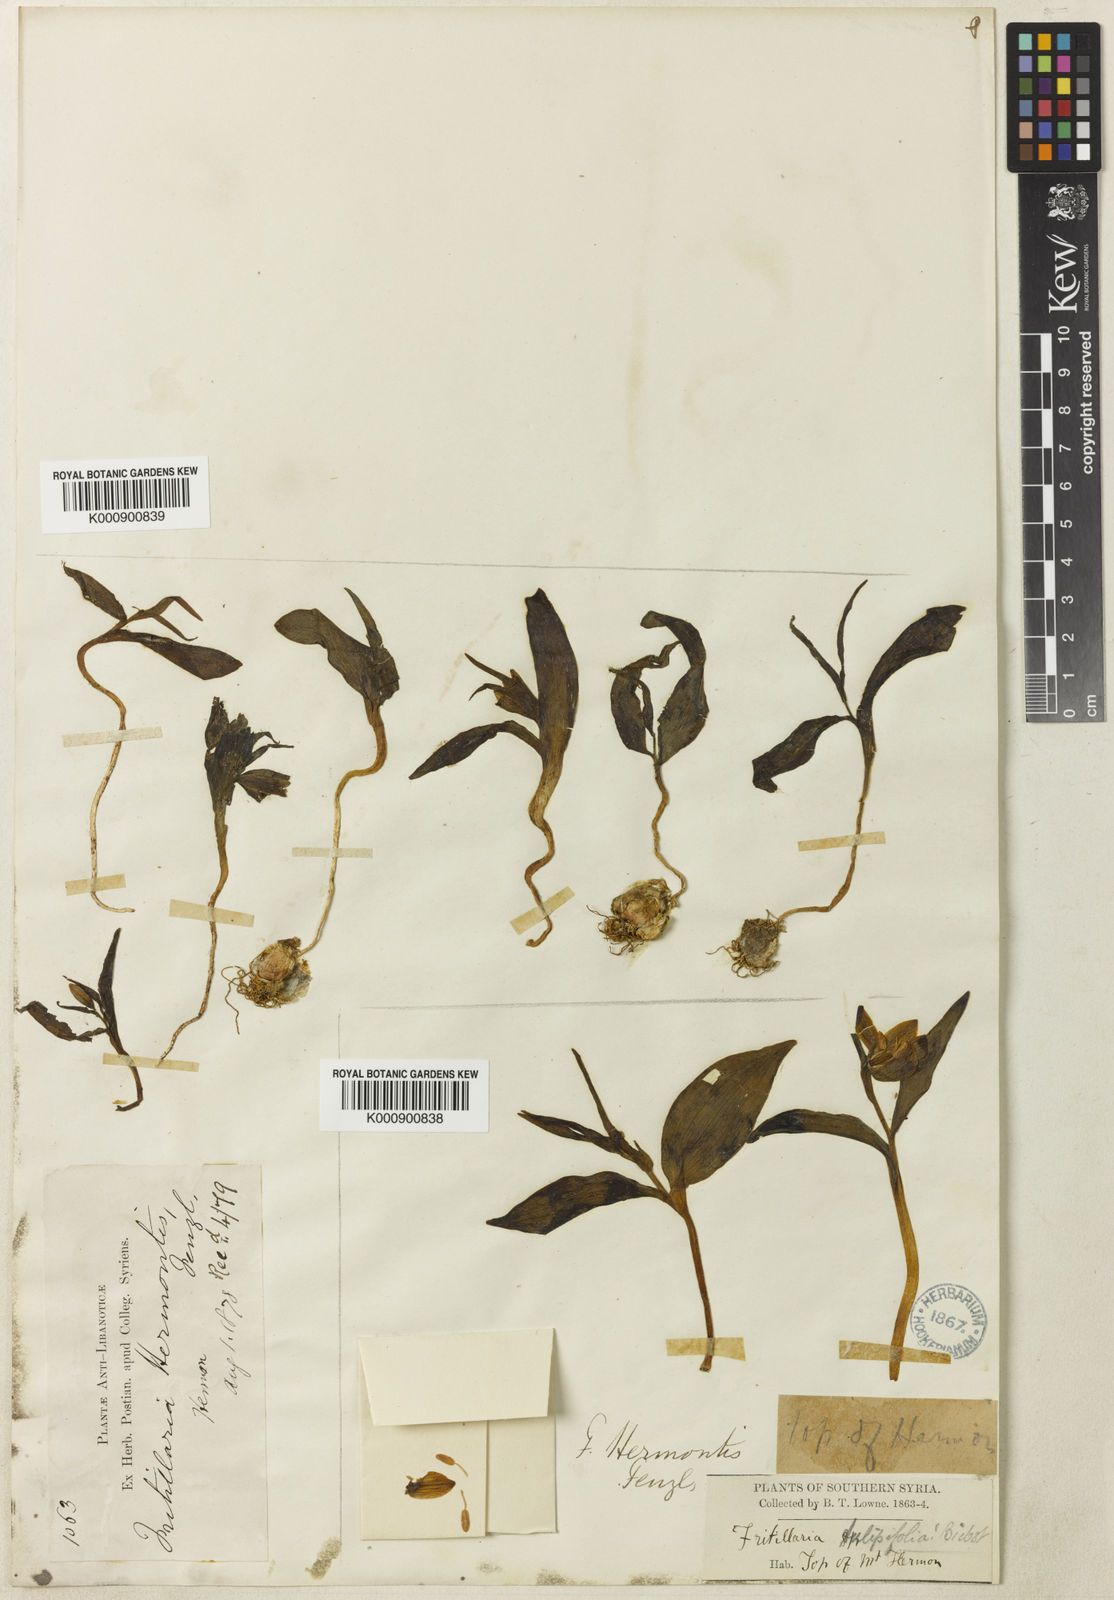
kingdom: Plantae
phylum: Tracheophyta
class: Liliopsida
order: Liliales
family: Liliaceae
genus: Fritillaria
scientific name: Fritillaria crassifolia
